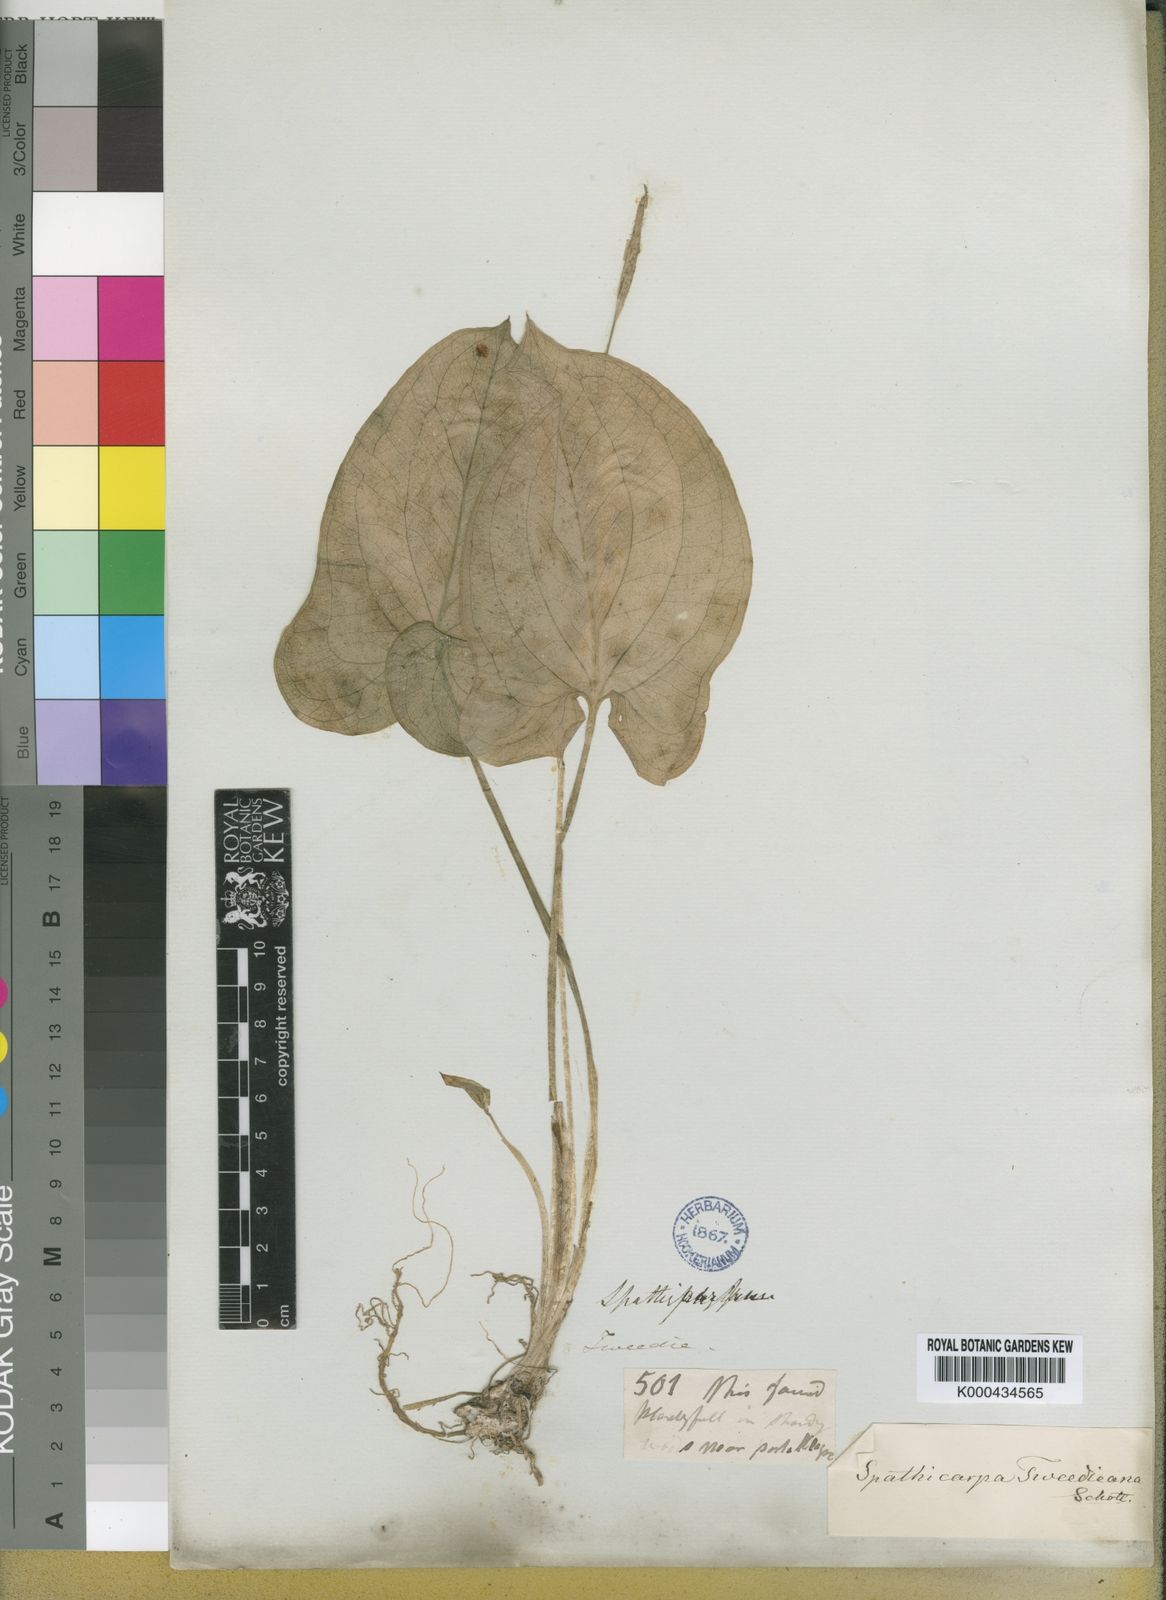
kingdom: Plantae
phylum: Tracheophyta
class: Liliopsida
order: Alismatales
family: Araceae
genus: Anthurium
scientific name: Anthurium scherzerianum
